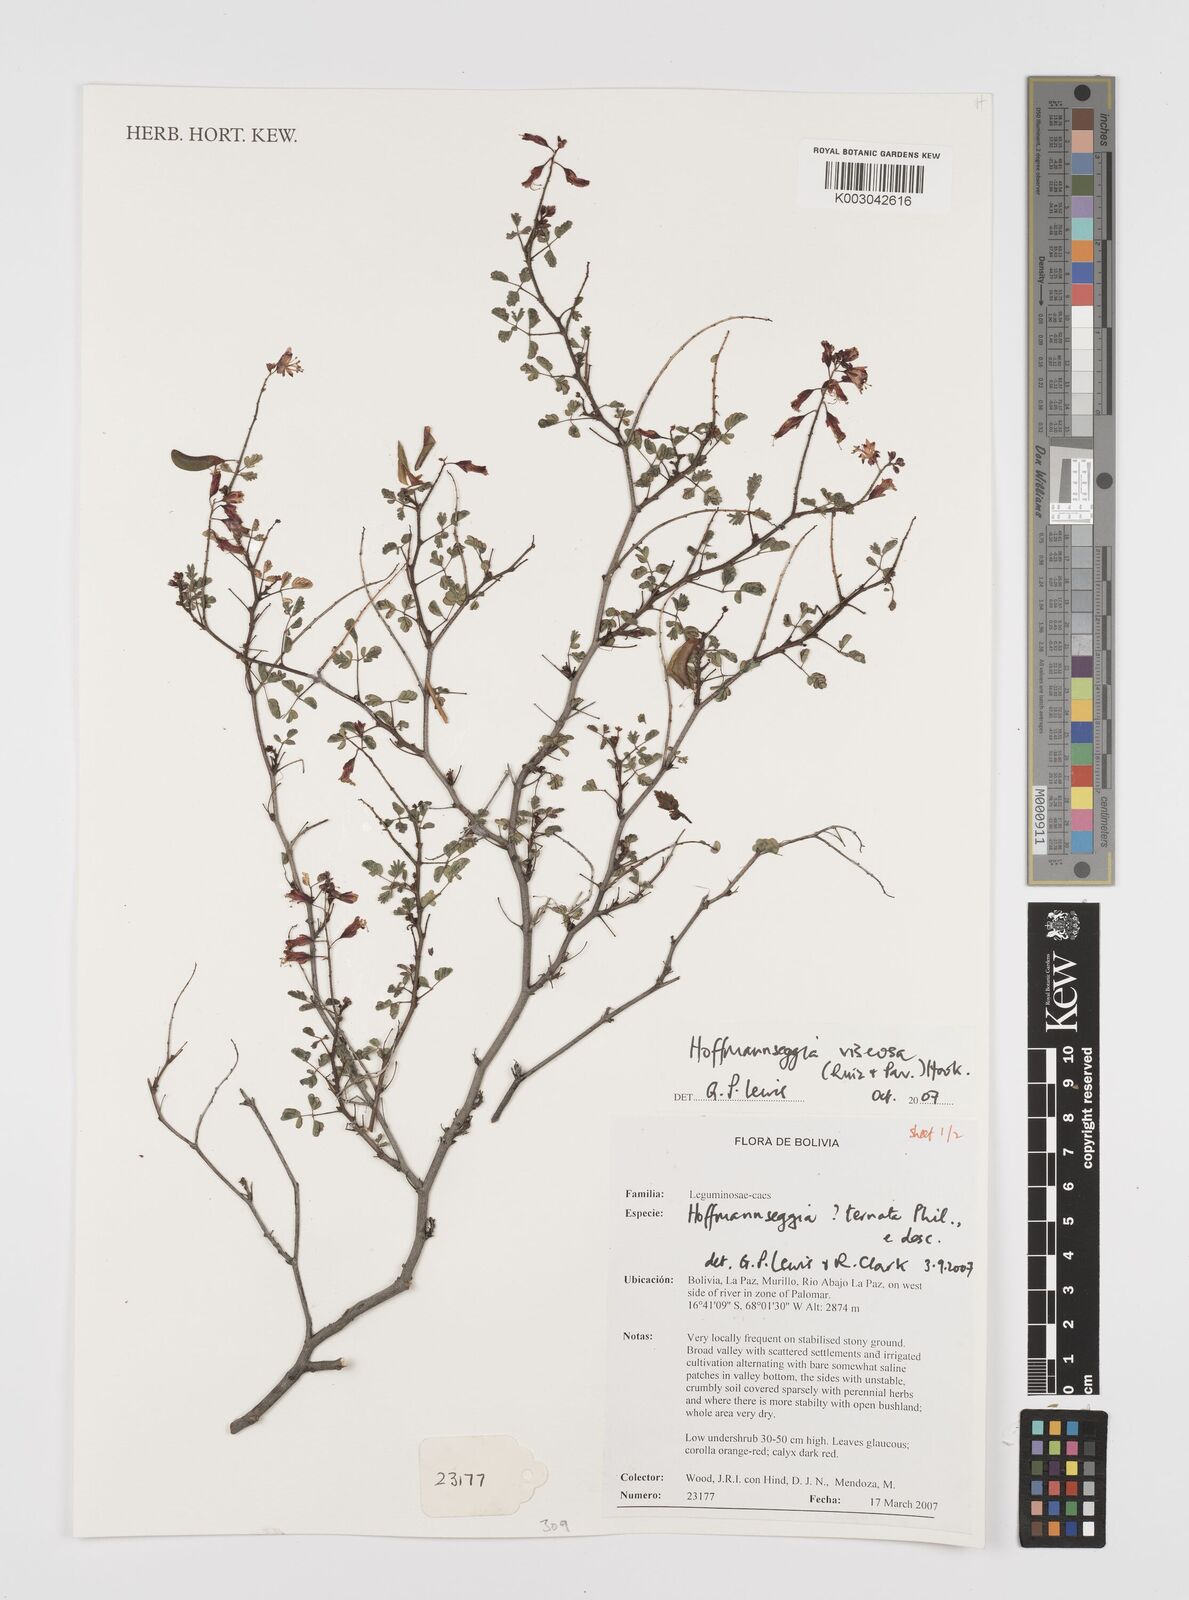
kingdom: Plantae
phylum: Tracheophyta
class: Magnoliopsida
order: Fabales
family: Fabaceae
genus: Hoffmannseggia
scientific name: Hoffmannseggia viscosa
